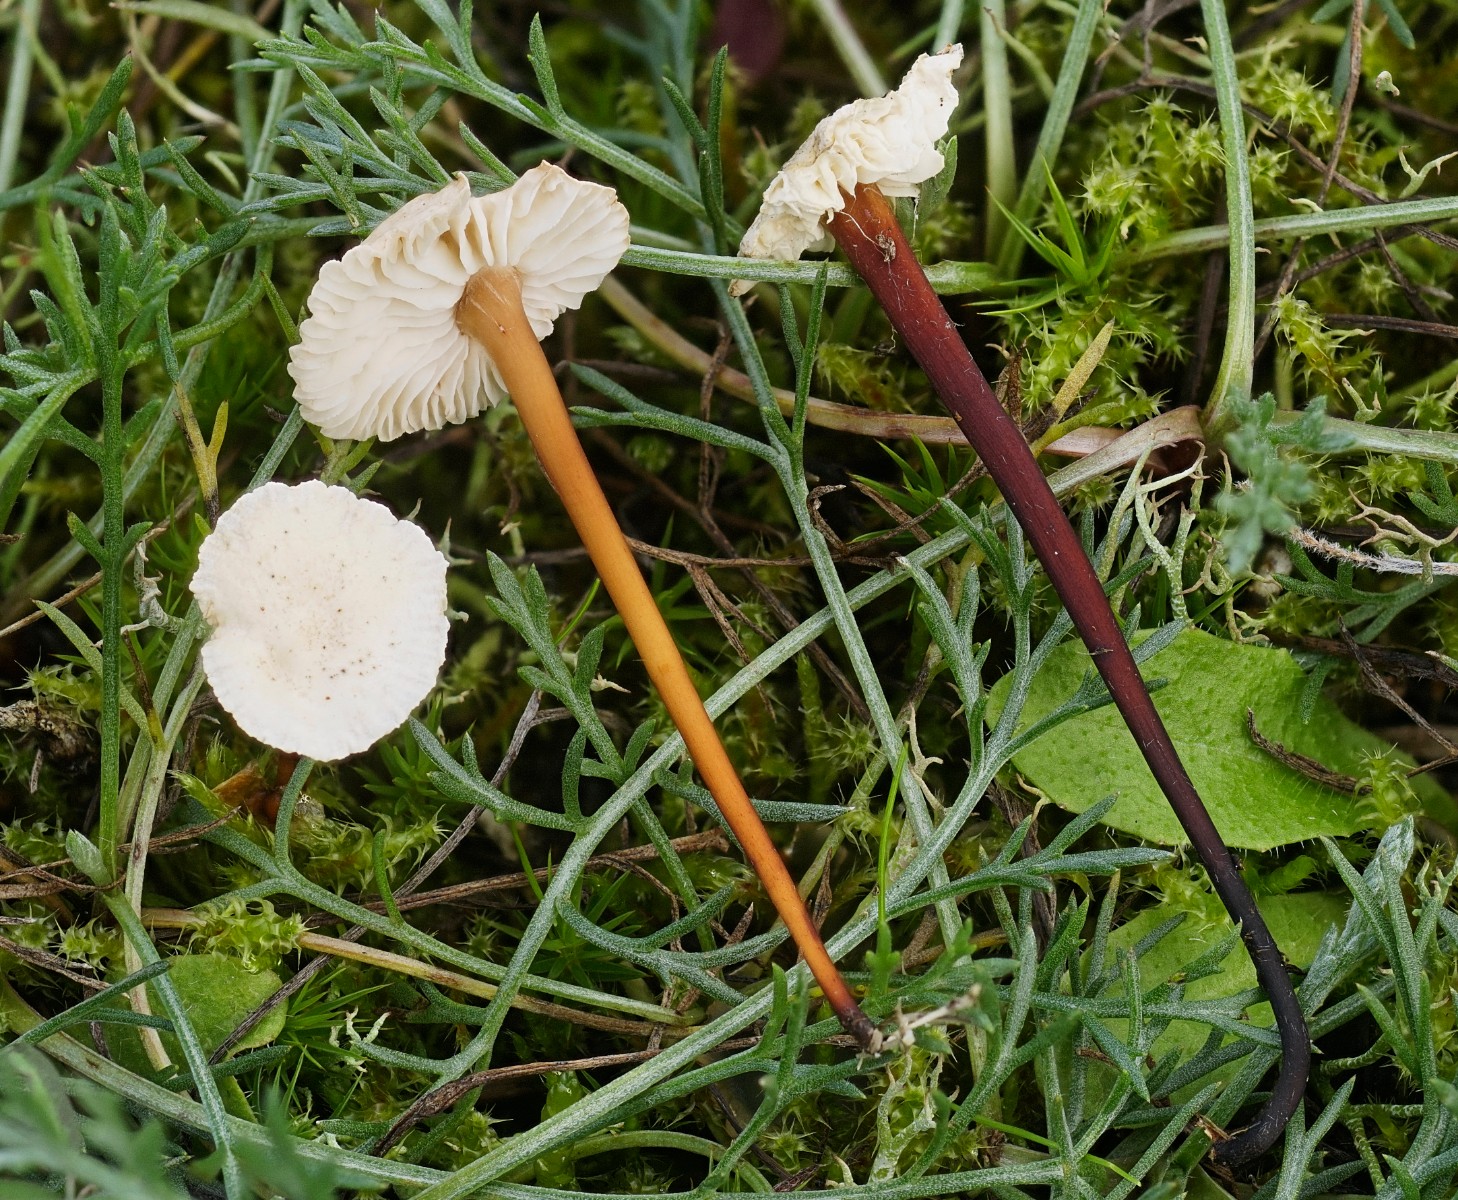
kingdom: Fungi
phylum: Basidiomycota
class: Agaricomycetes
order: Agaricales
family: Omphalotaceae
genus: Mycetinis
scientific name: Mycetinis scorodonius
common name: lille løghat
